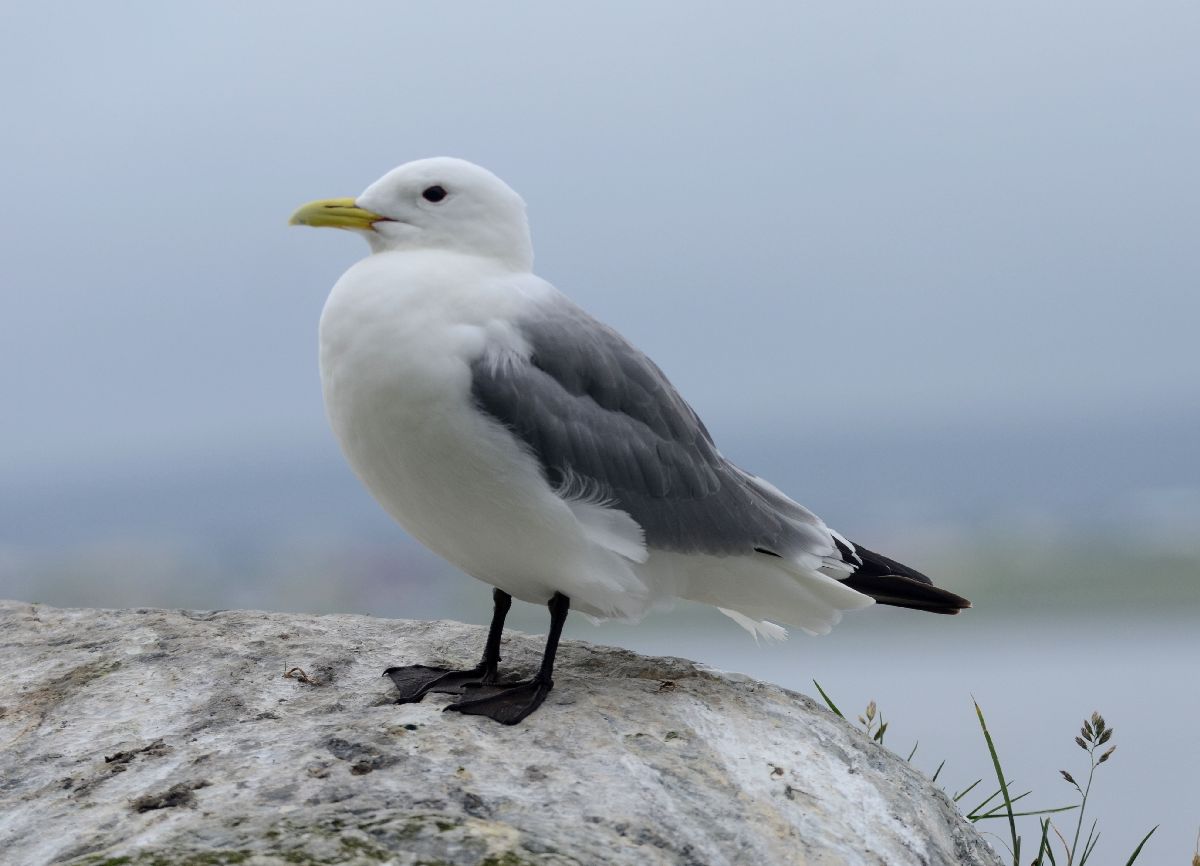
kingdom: Animalia
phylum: Chordata
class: Aves
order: Charadriiformes
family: Laridae
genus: Rissa
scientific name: Rissa tridactyla
